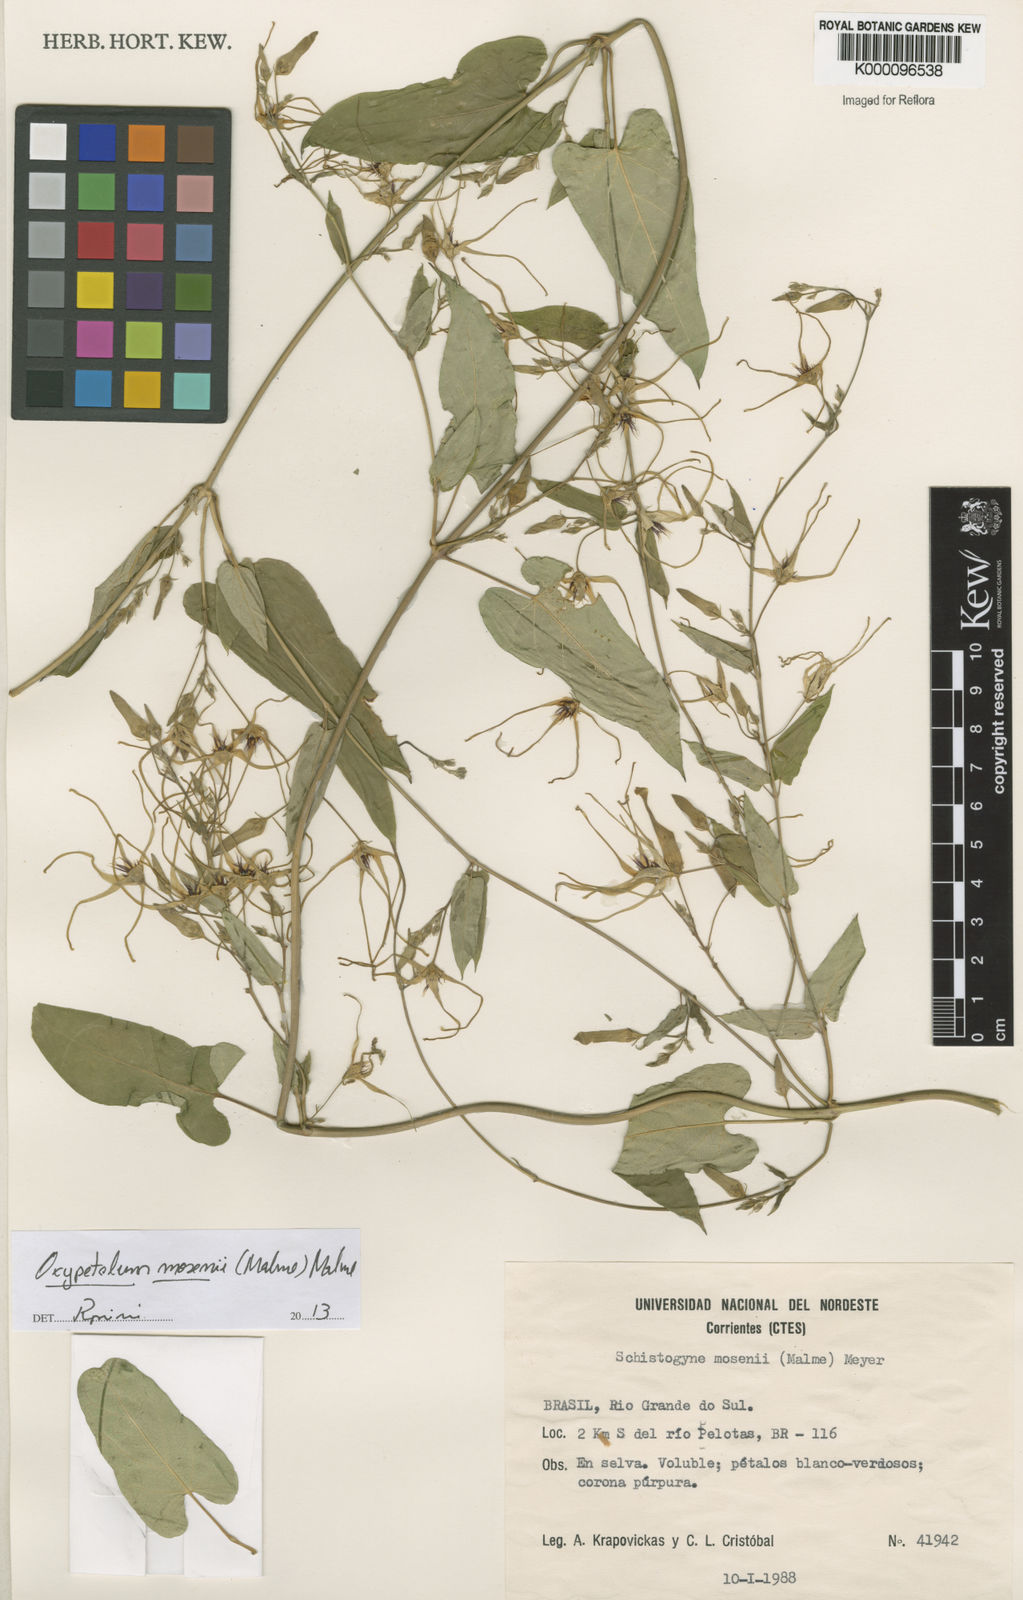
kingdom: Plantae
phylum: Tracheophyta
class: Magnoliopsida
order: Gentianales
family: Apocynaceae
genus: Oxypetalum
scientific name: Oxypetalum mosenii
